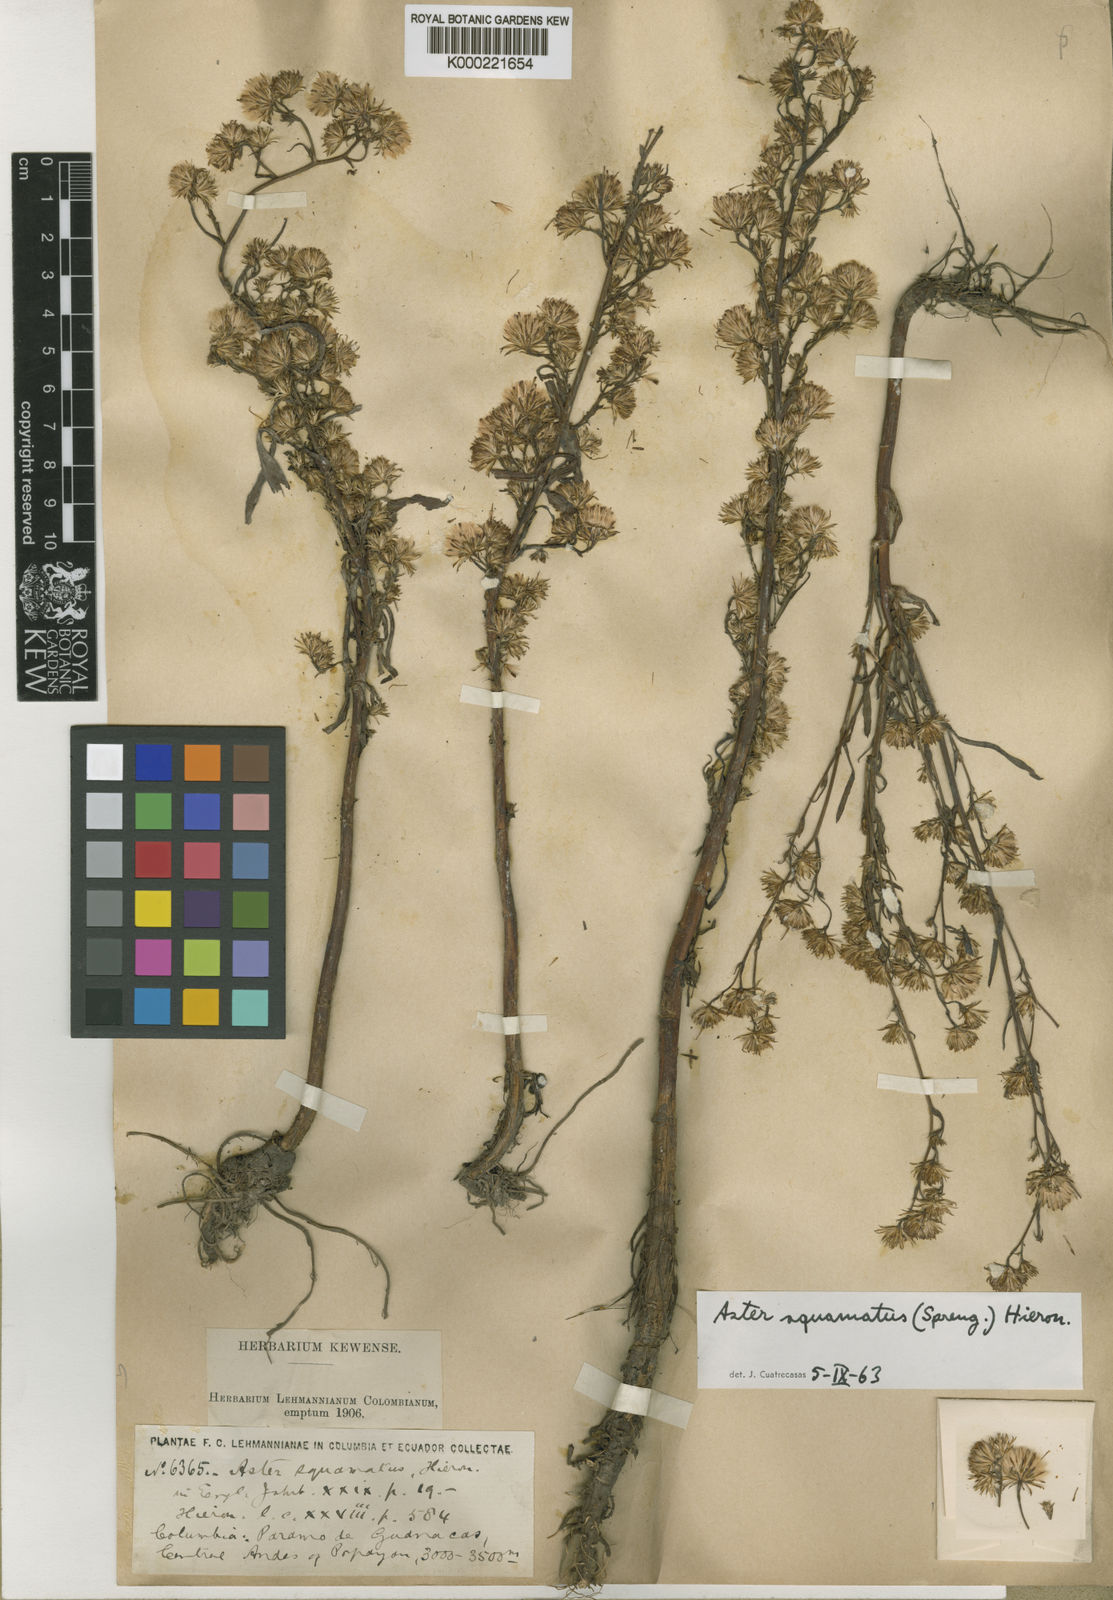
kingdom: Plantae
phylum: Tracheophyta
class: Magnoliopsida
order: Asterales
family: Asteraceae
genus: Symphyotrichum
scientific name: Symphyotrichum squamatum
